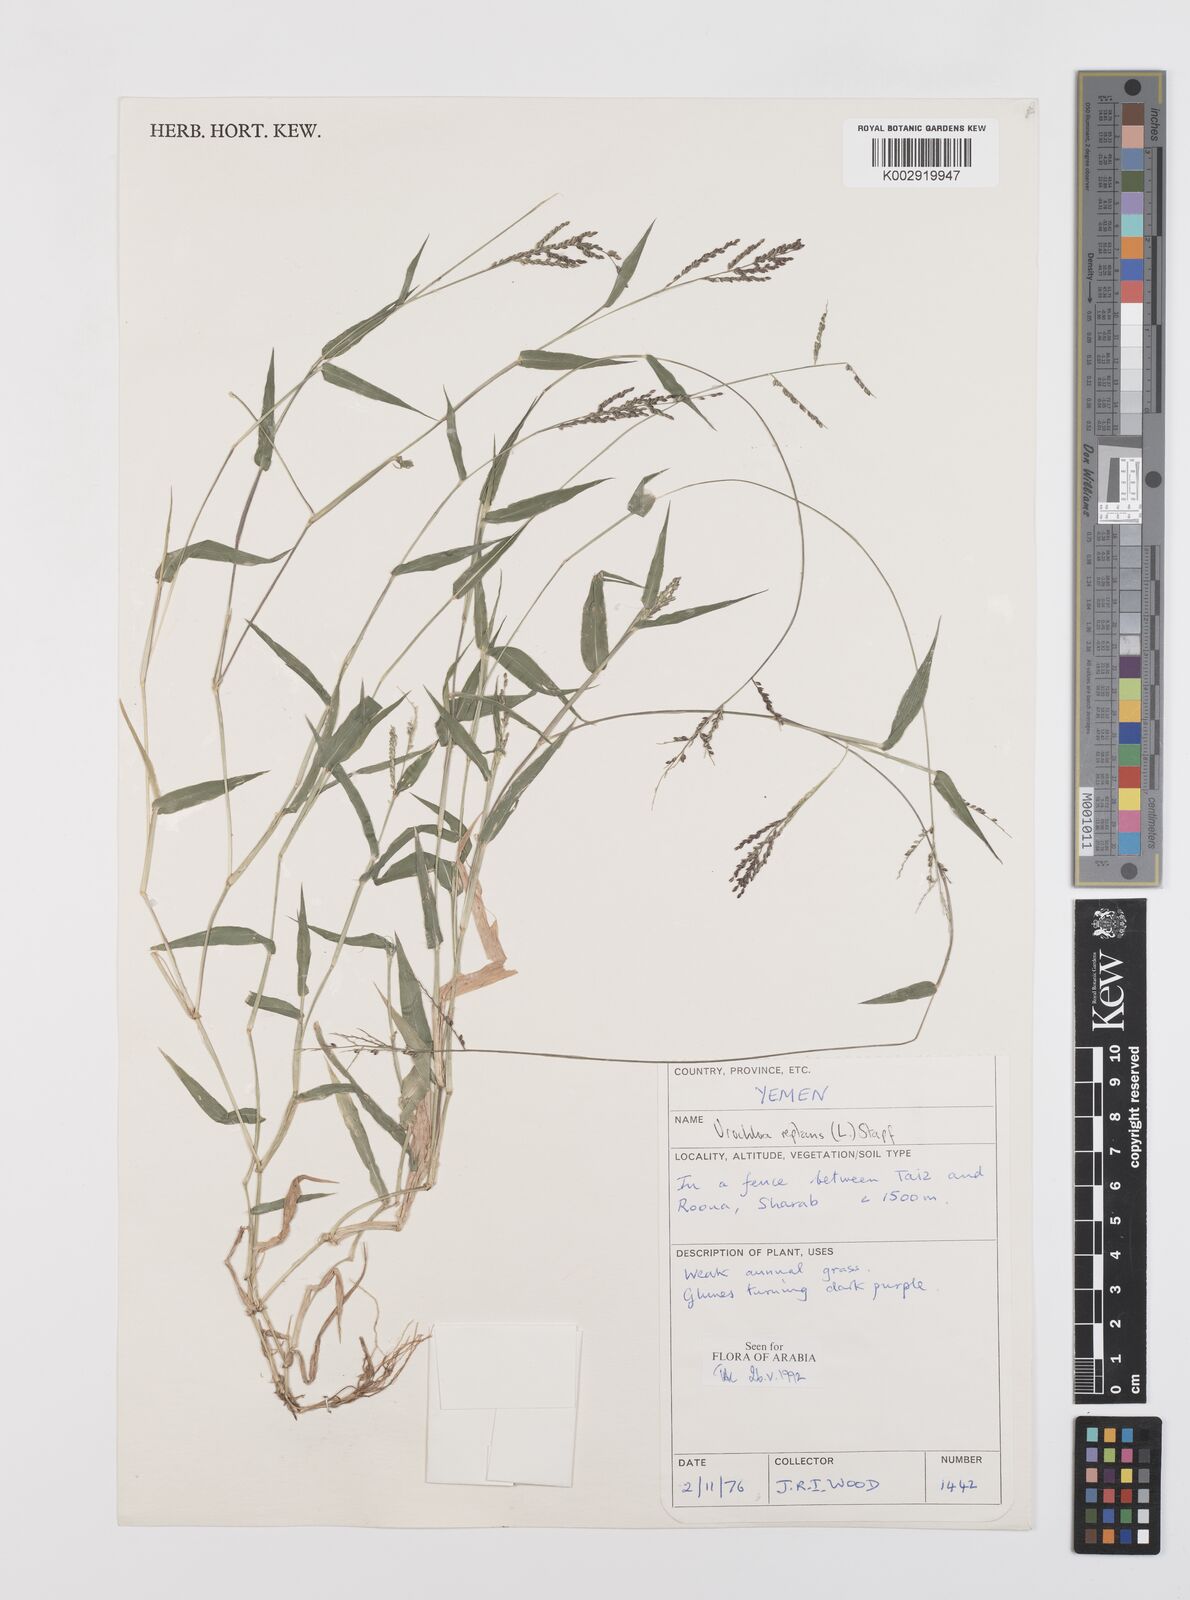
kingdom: Plantae
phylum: Tracheophyta
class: Liliopsida
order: Poales
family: Poaceae
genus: Urochloa
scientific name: Urochloa reptans
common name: Sprawling signalgrass
